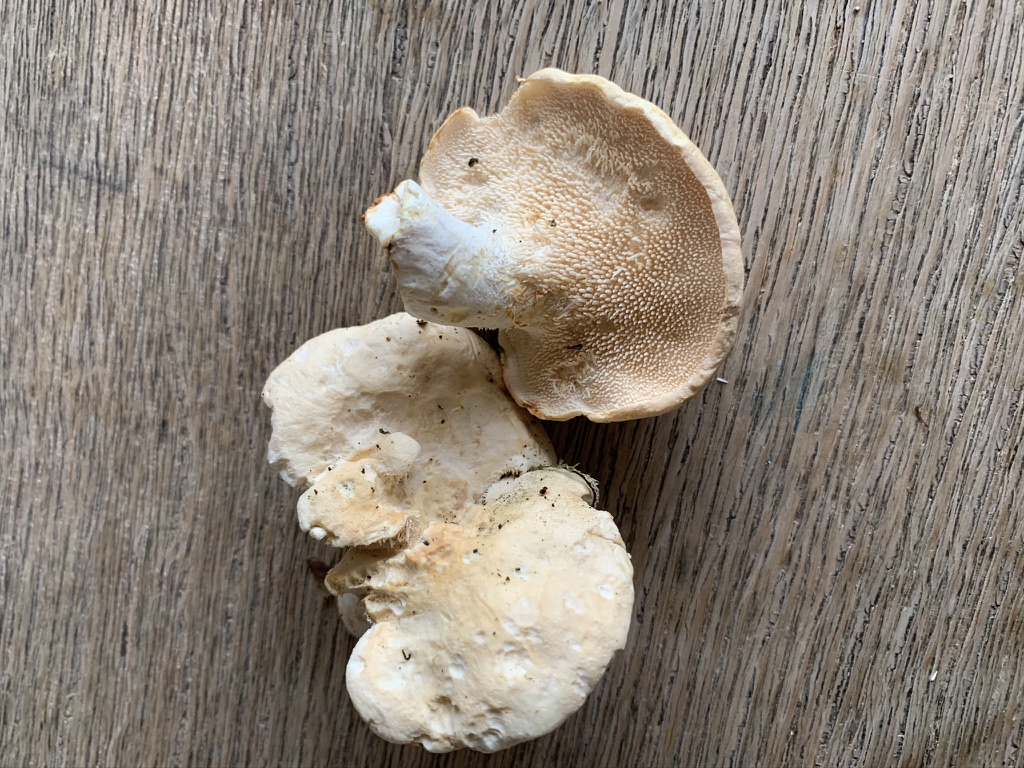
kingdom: Fungi
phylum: Basidiomycota
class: Agaricomycetes
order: Cantharellales
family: Hydnaceae
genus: Hydnum
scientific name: Hydnum repandum
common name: almindelig pigsvamp
